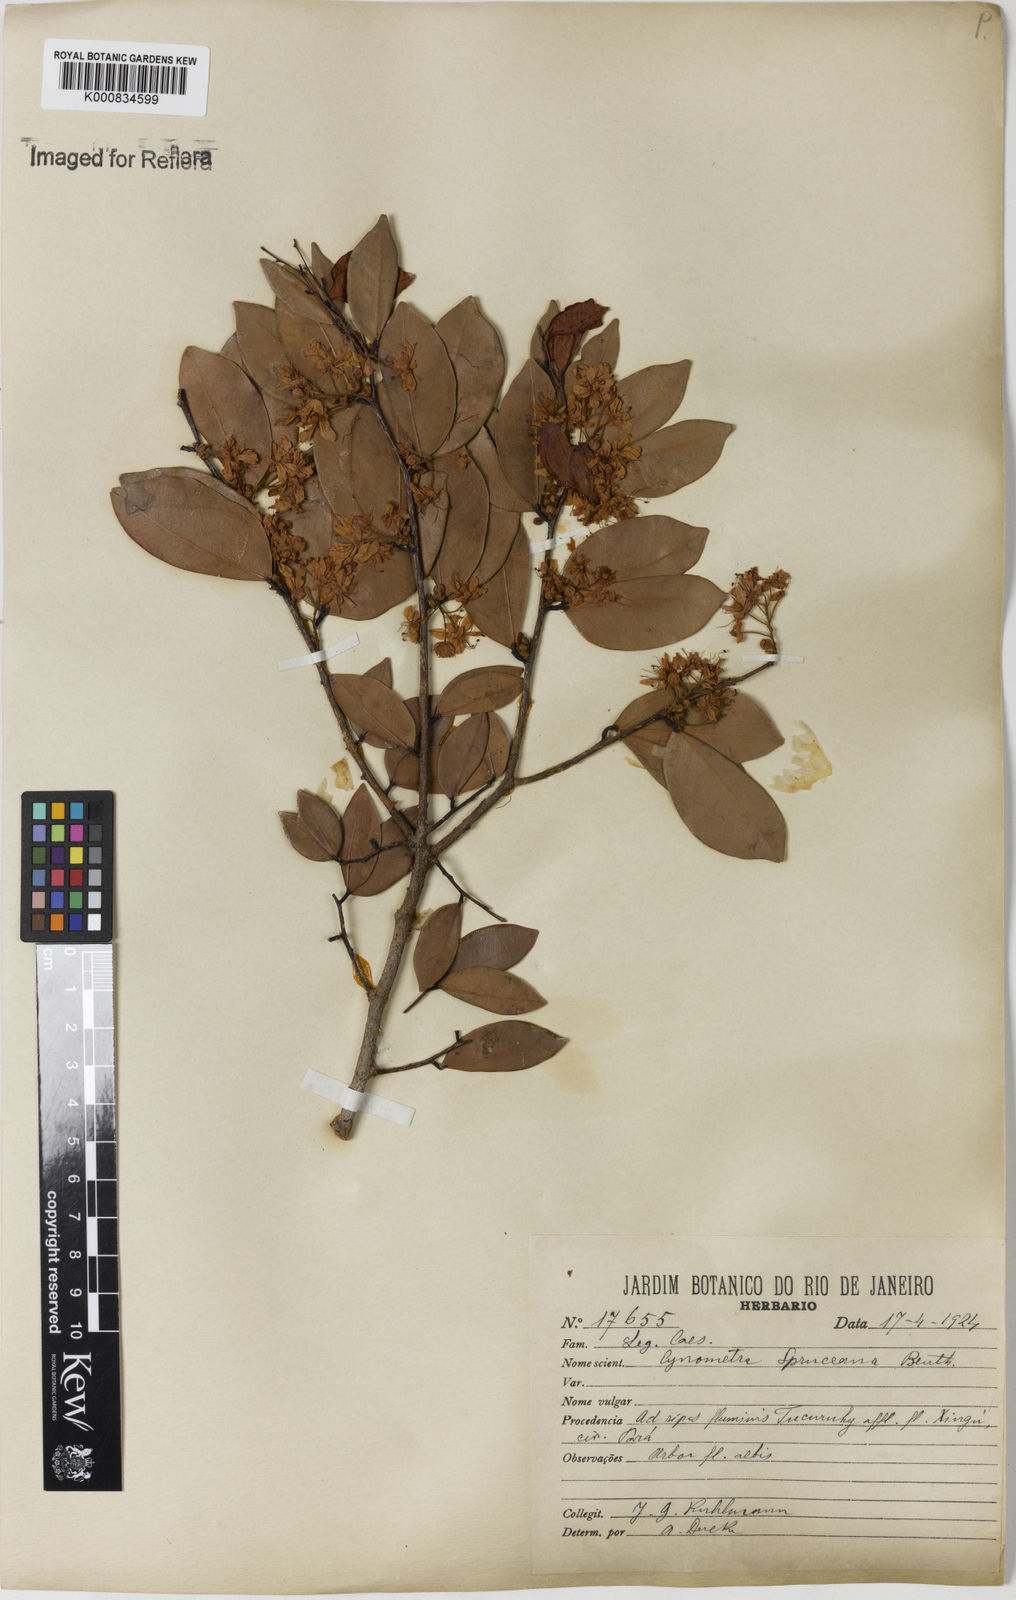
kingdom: Plantae
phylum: Tracheophyta
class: Magnoliopsida
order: Fabales
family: Fabaceae
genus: Cynometra
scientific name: Cynometra phaselocarpa
